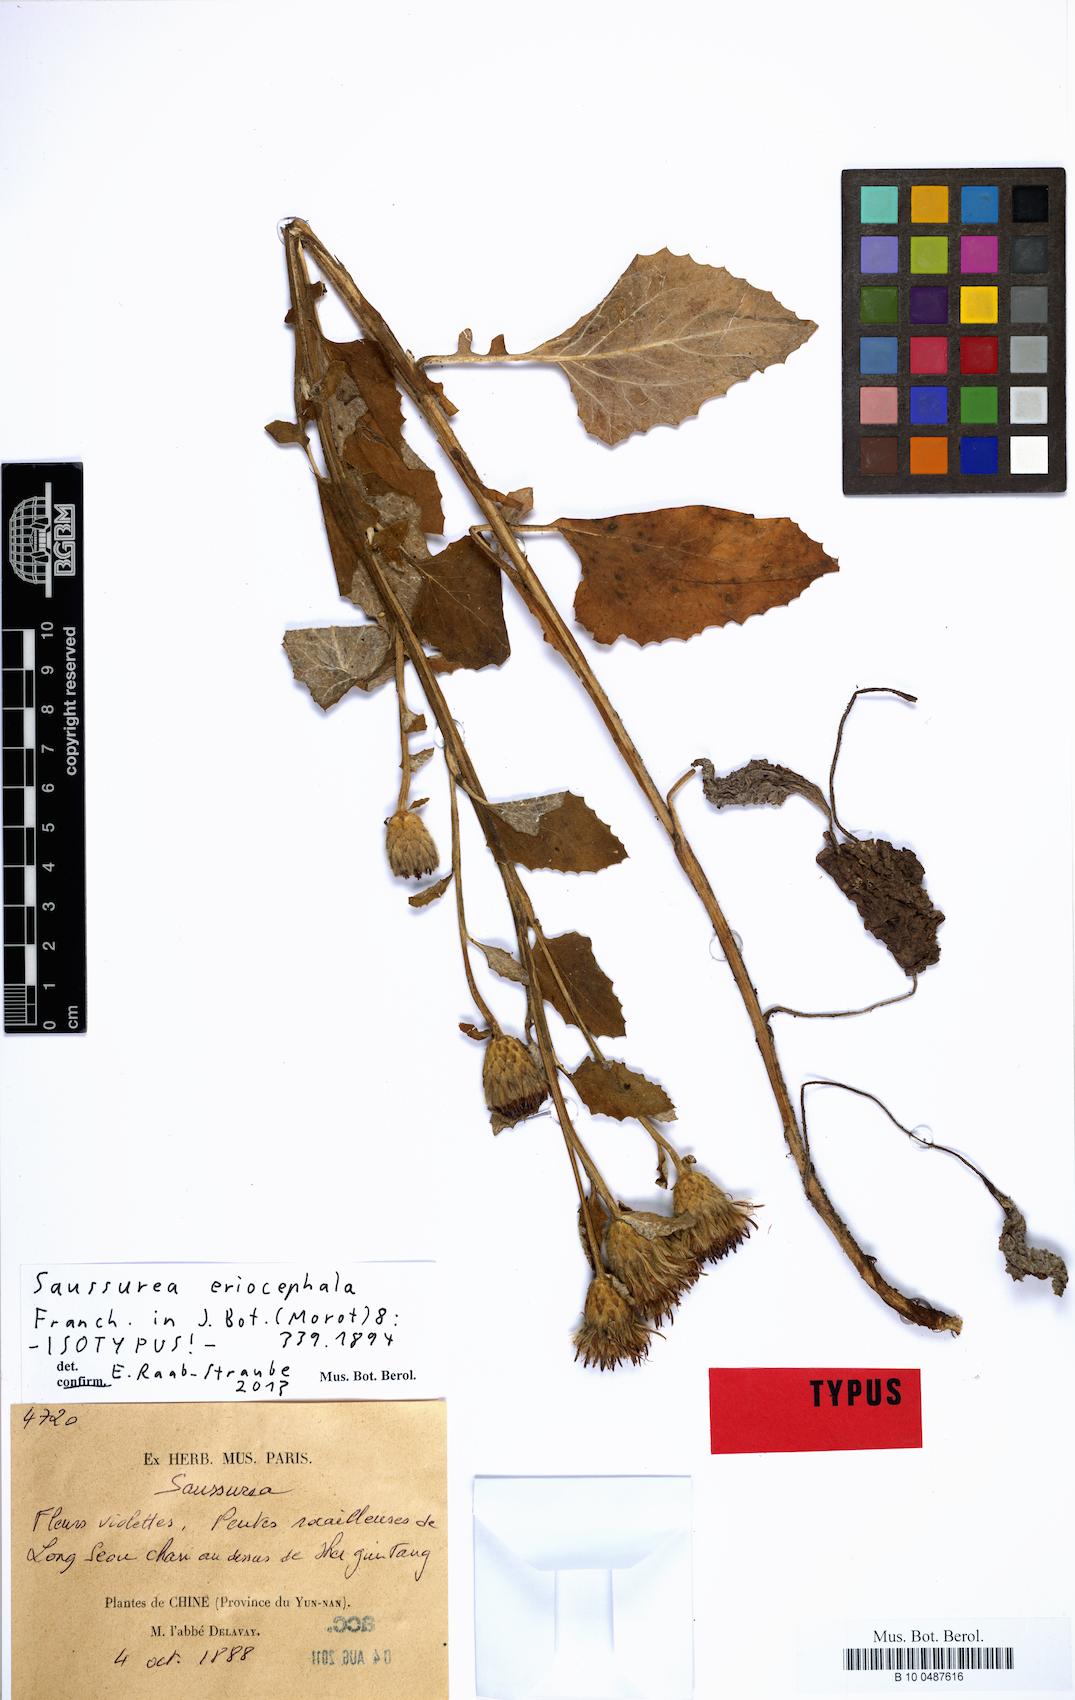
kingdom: Plantae
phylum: Tracheophyta
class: Magnoliopsida
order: Asterales
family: Asteraceae
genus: Saussurea
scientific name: Saussurea eriocephala
